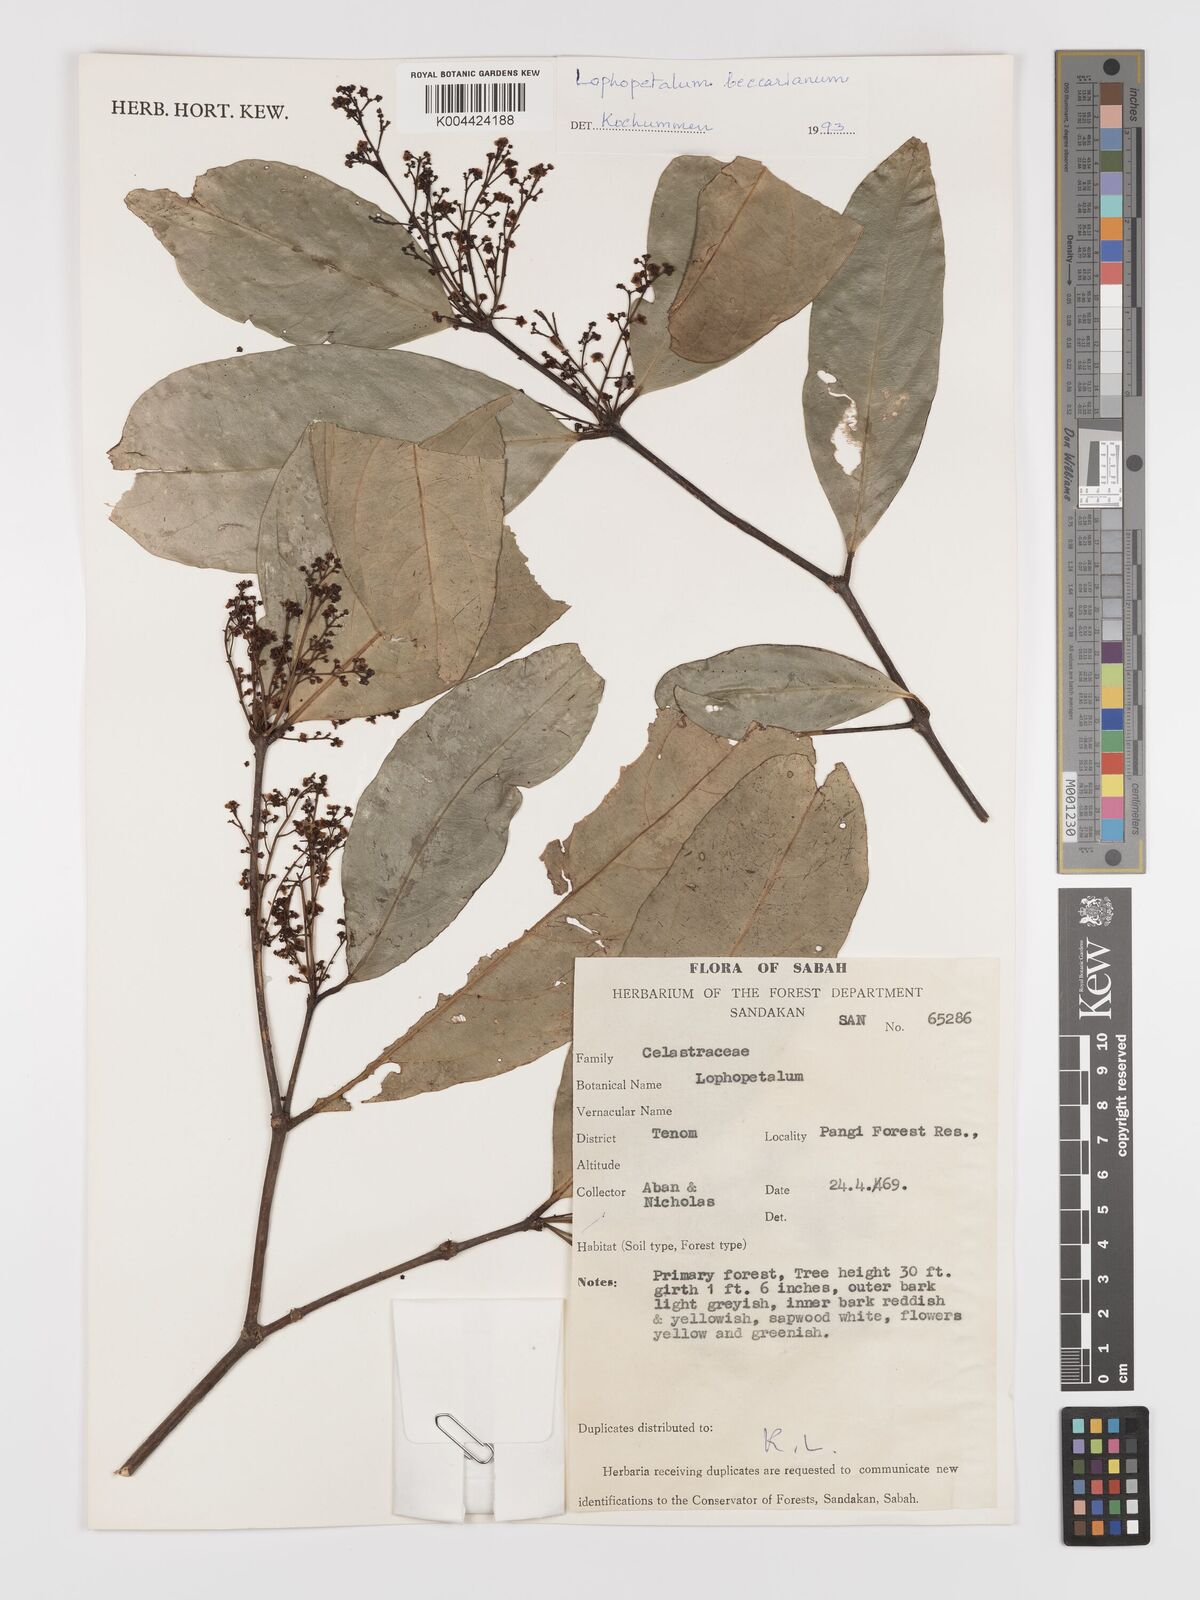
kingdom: Plantae
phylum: Tracheophyta
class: Magnoliopsida
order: Celastrales
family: Celastraceae
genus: Lophopetalum
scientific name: Lophopetalum beccarianum
